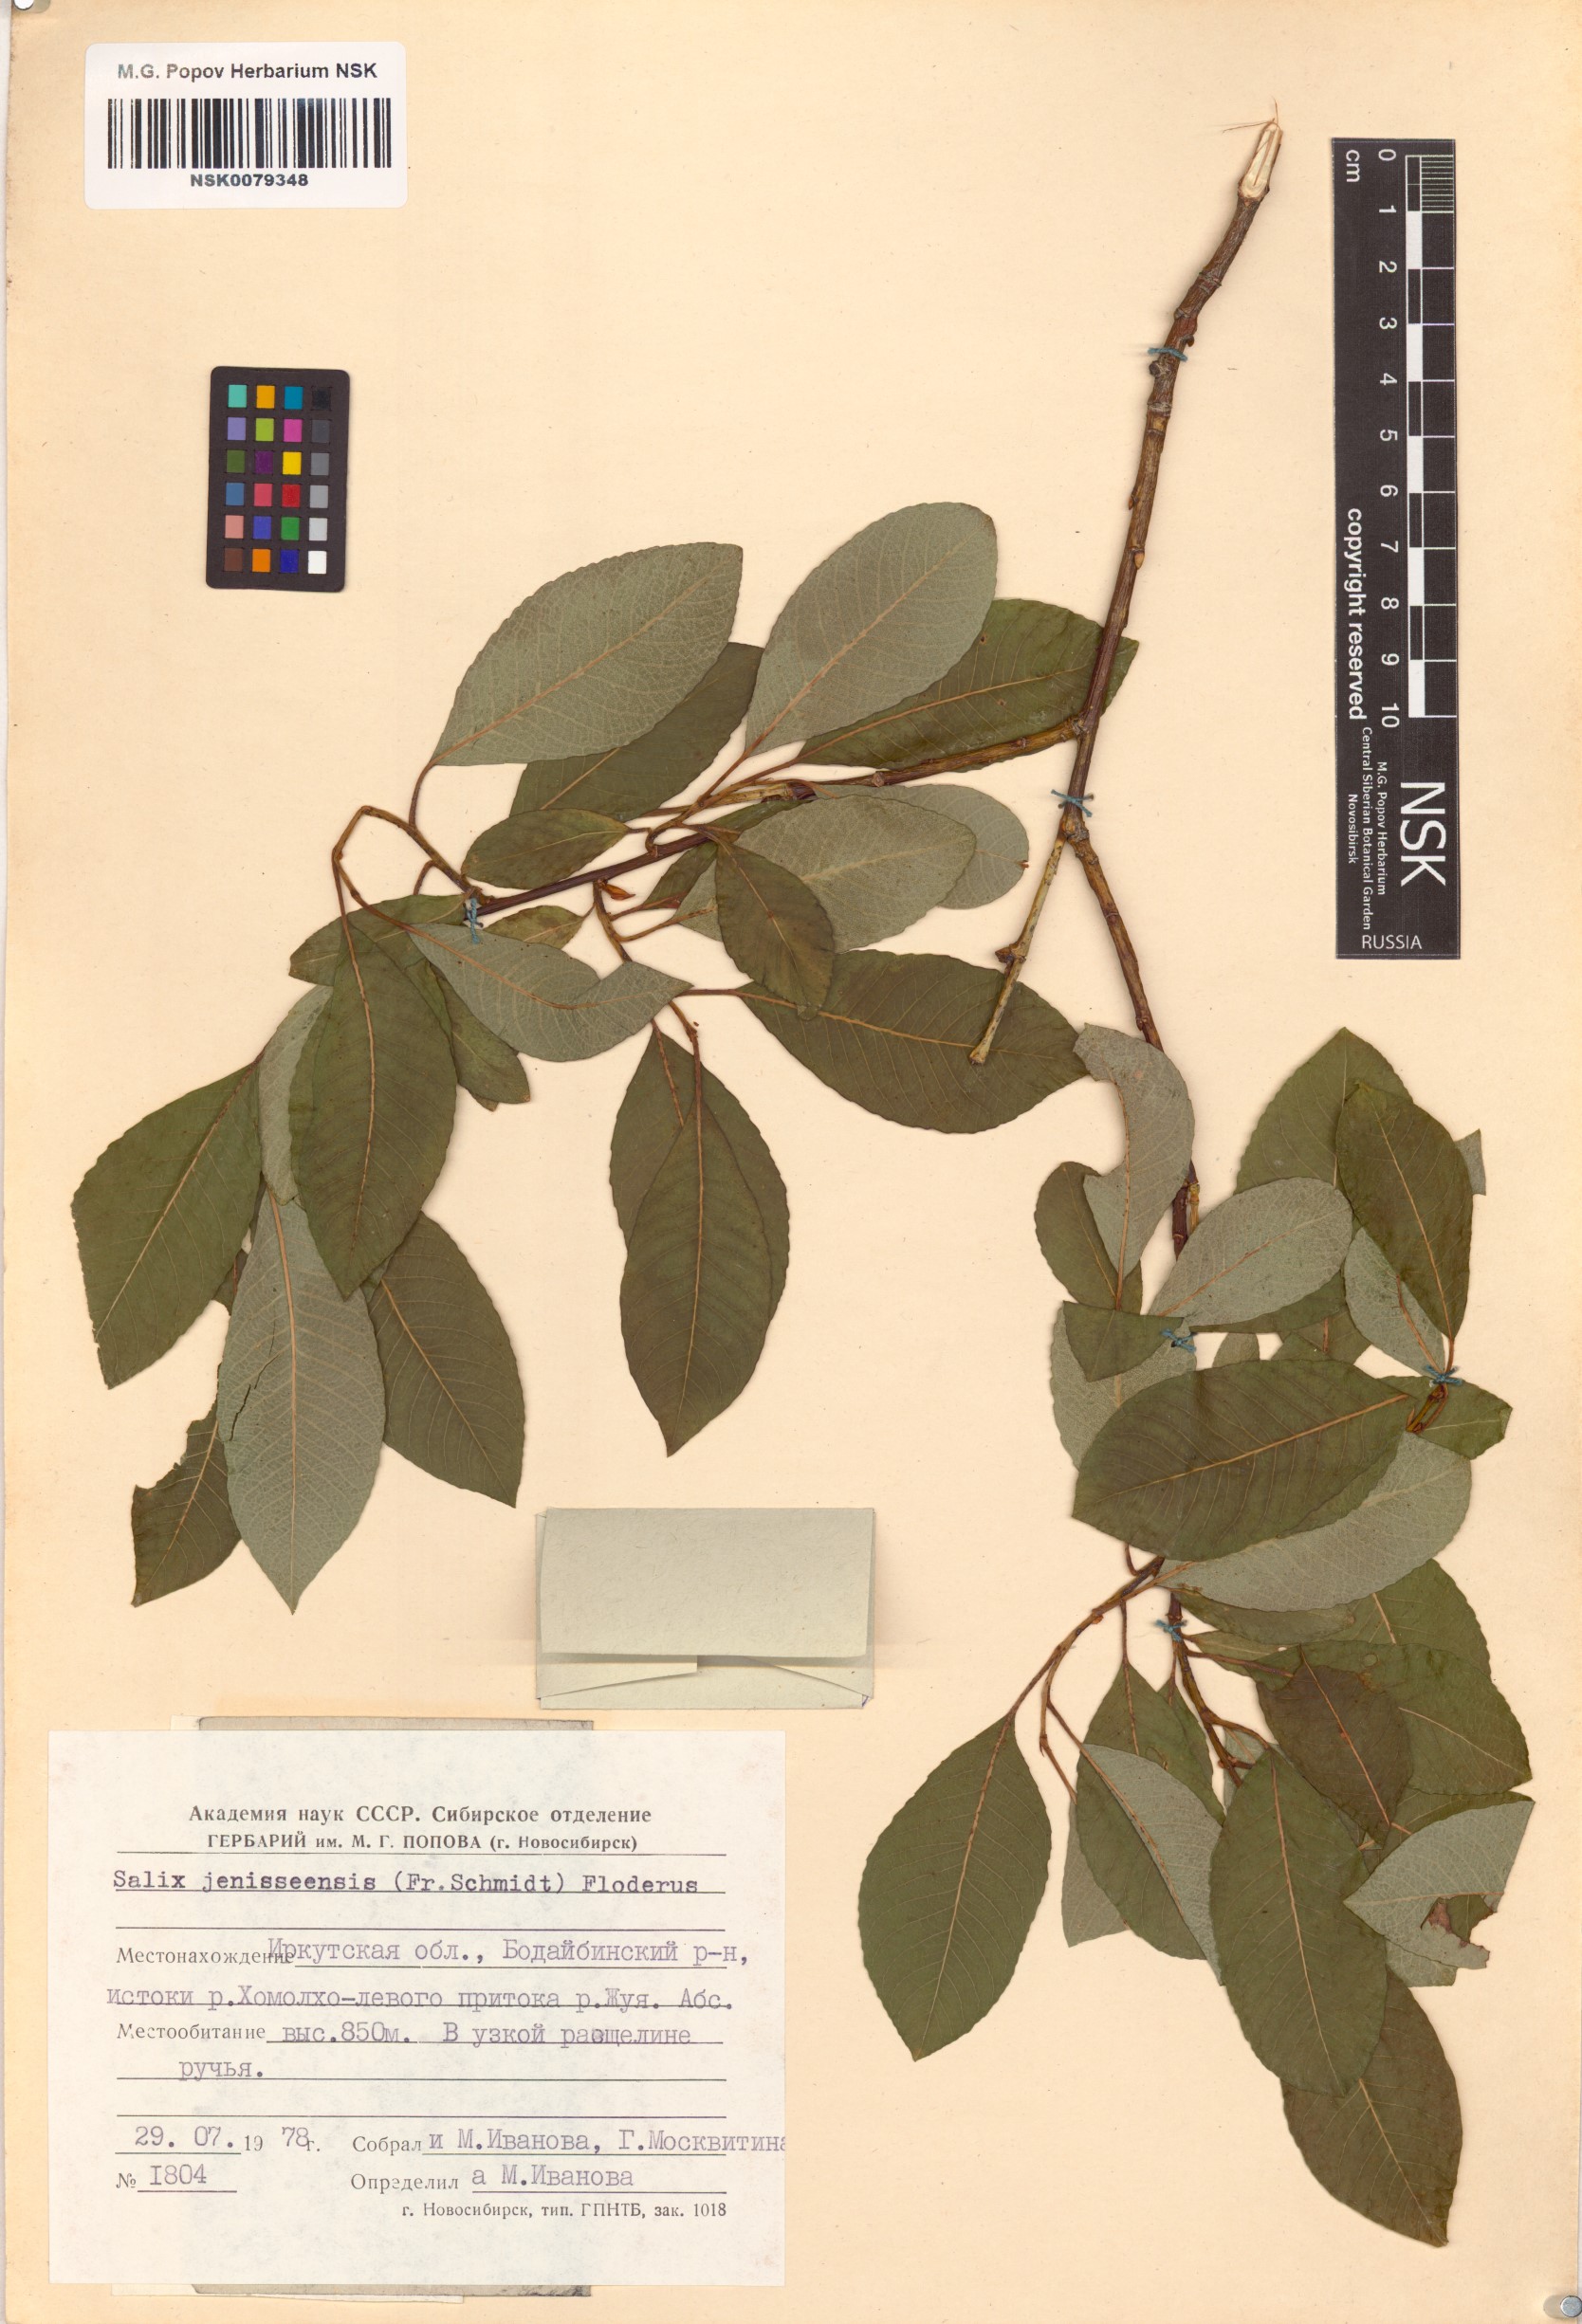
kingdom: Plantae
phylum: Tracheophyta
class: Magnoliopsida
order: Malpighiales
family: Salicaceae
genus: Salix
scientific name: Salix jenisseensis
